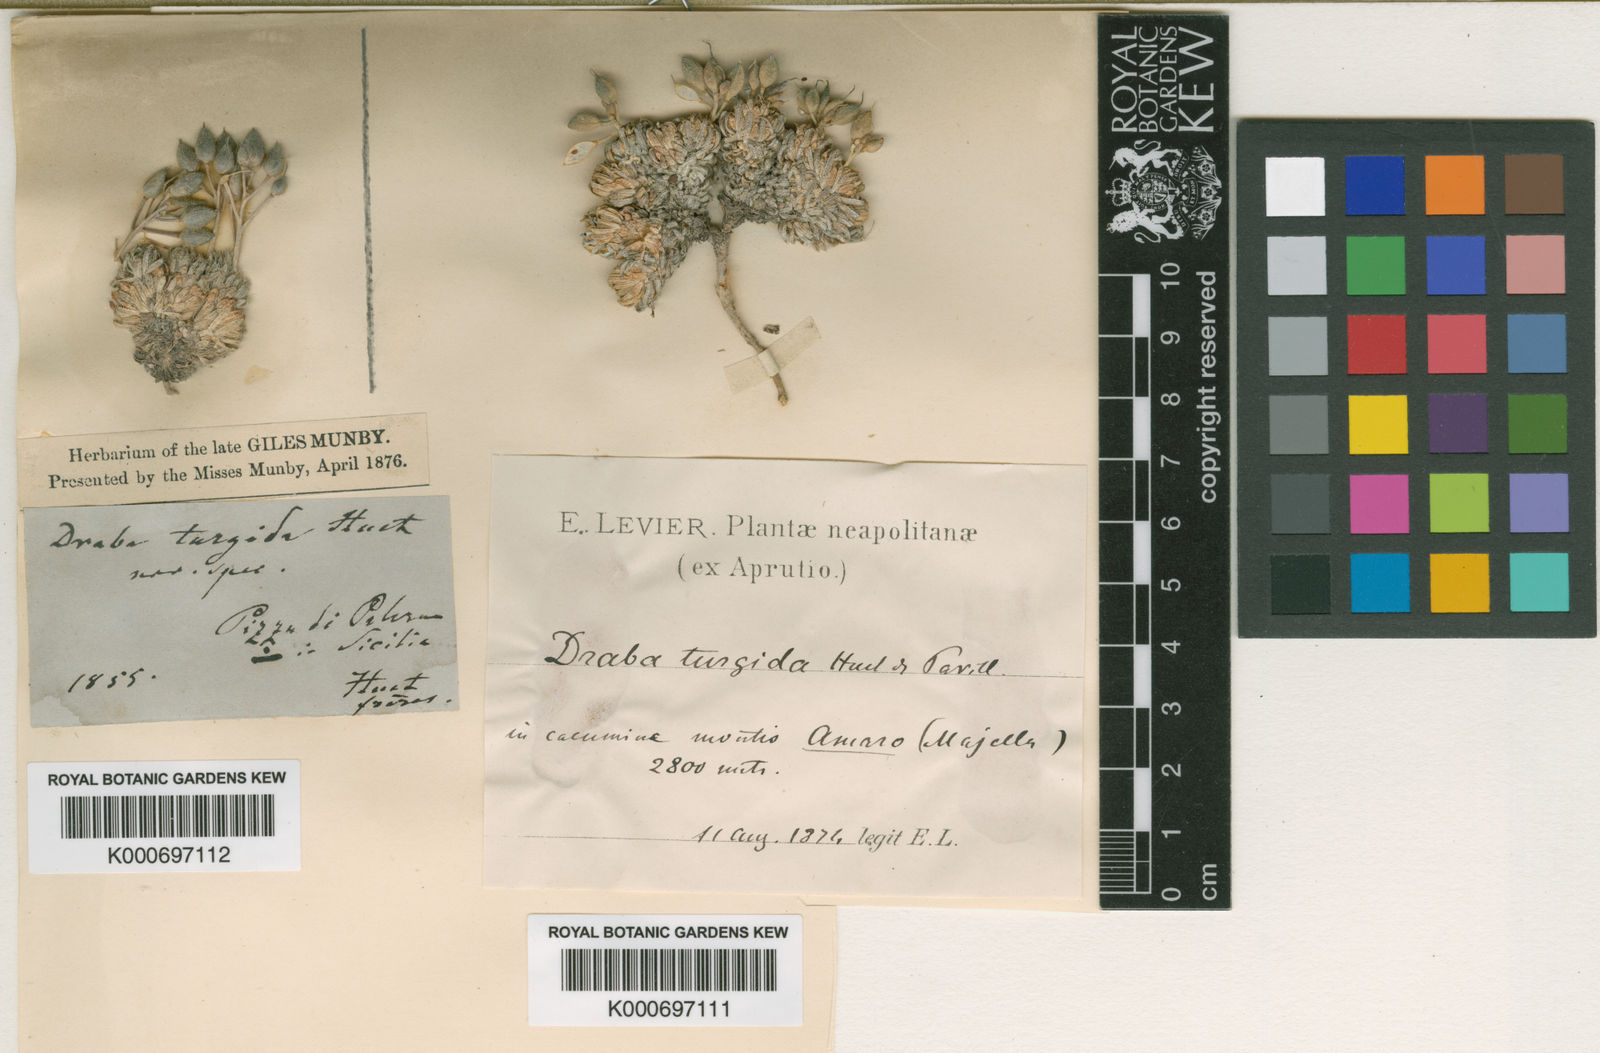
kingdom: Plantae
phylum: Tracheophyta
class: Magnoliopsida
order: Brassicales
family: Brassicaceae
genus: Draba
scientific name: Draba aspera
